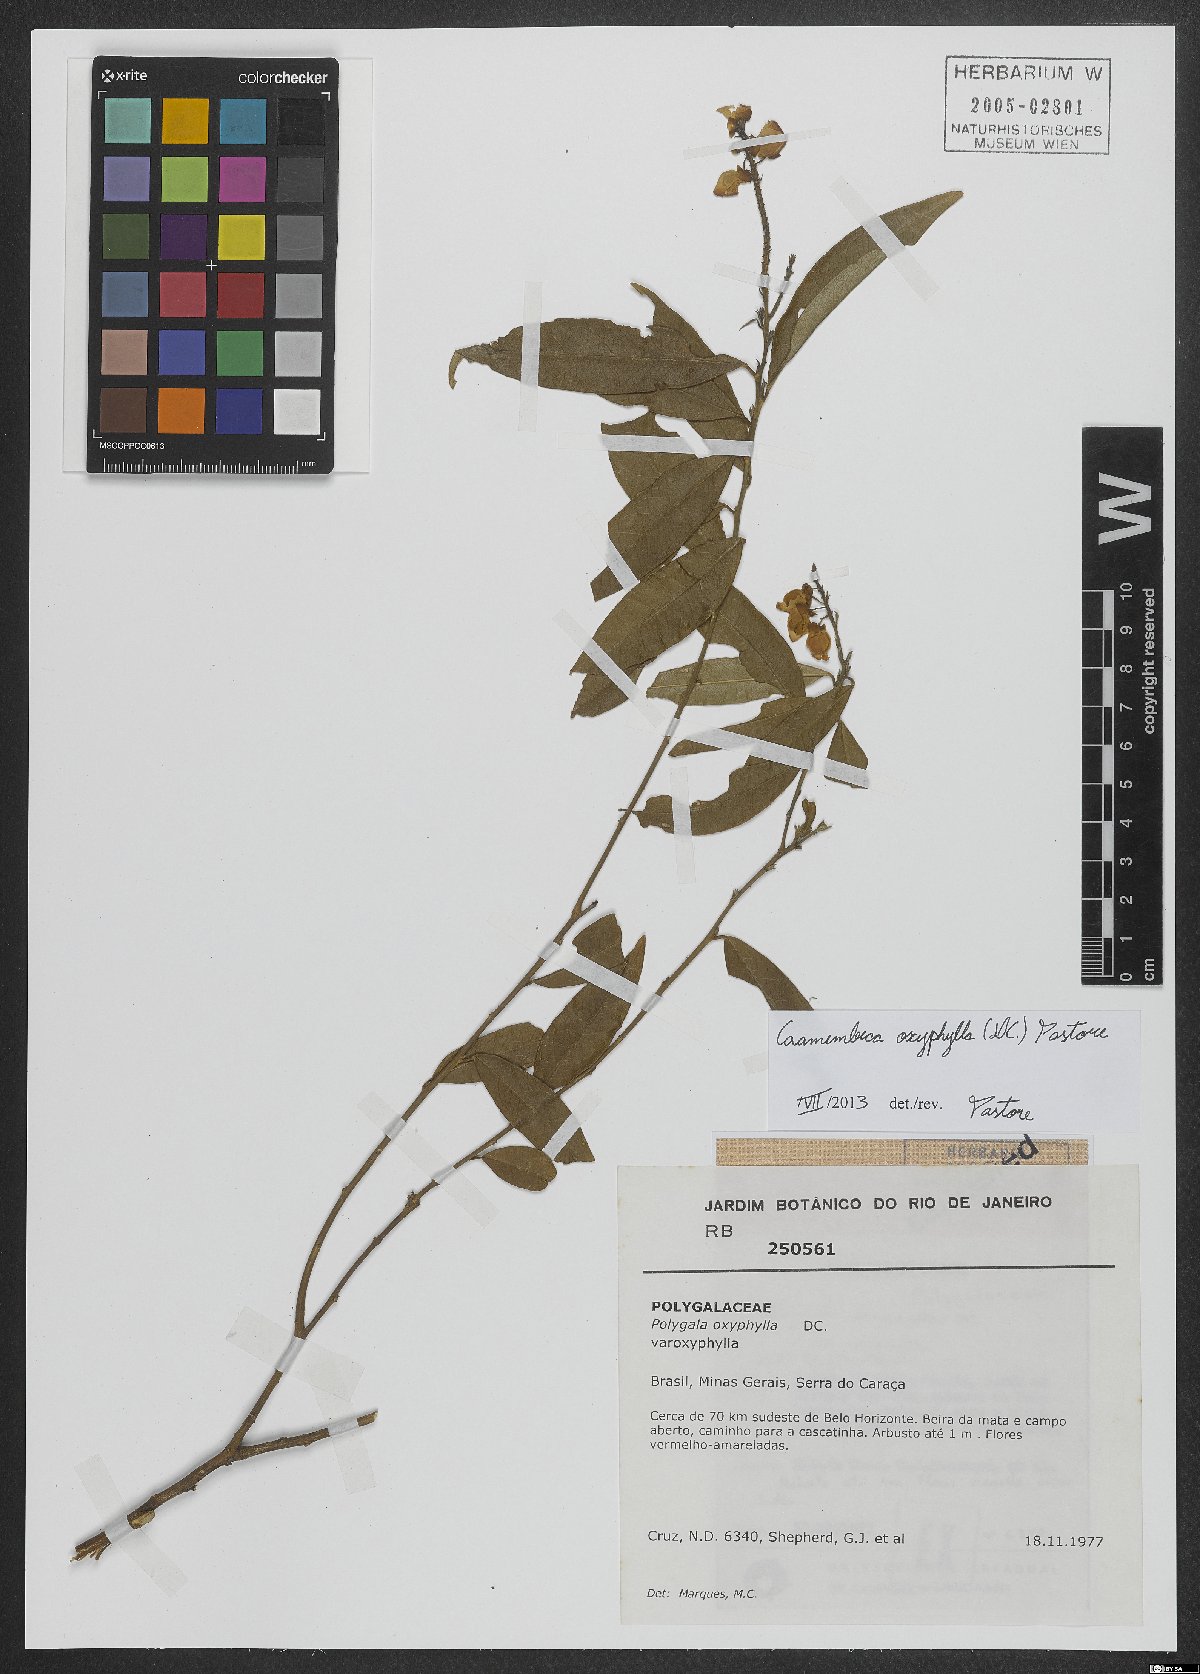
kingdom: Plantae
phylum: Tracheophyta
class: Magnoliopsida
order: Fabales
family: Polygalaceae
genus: Caamembeca
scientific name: Caamembeca oxyphylla
